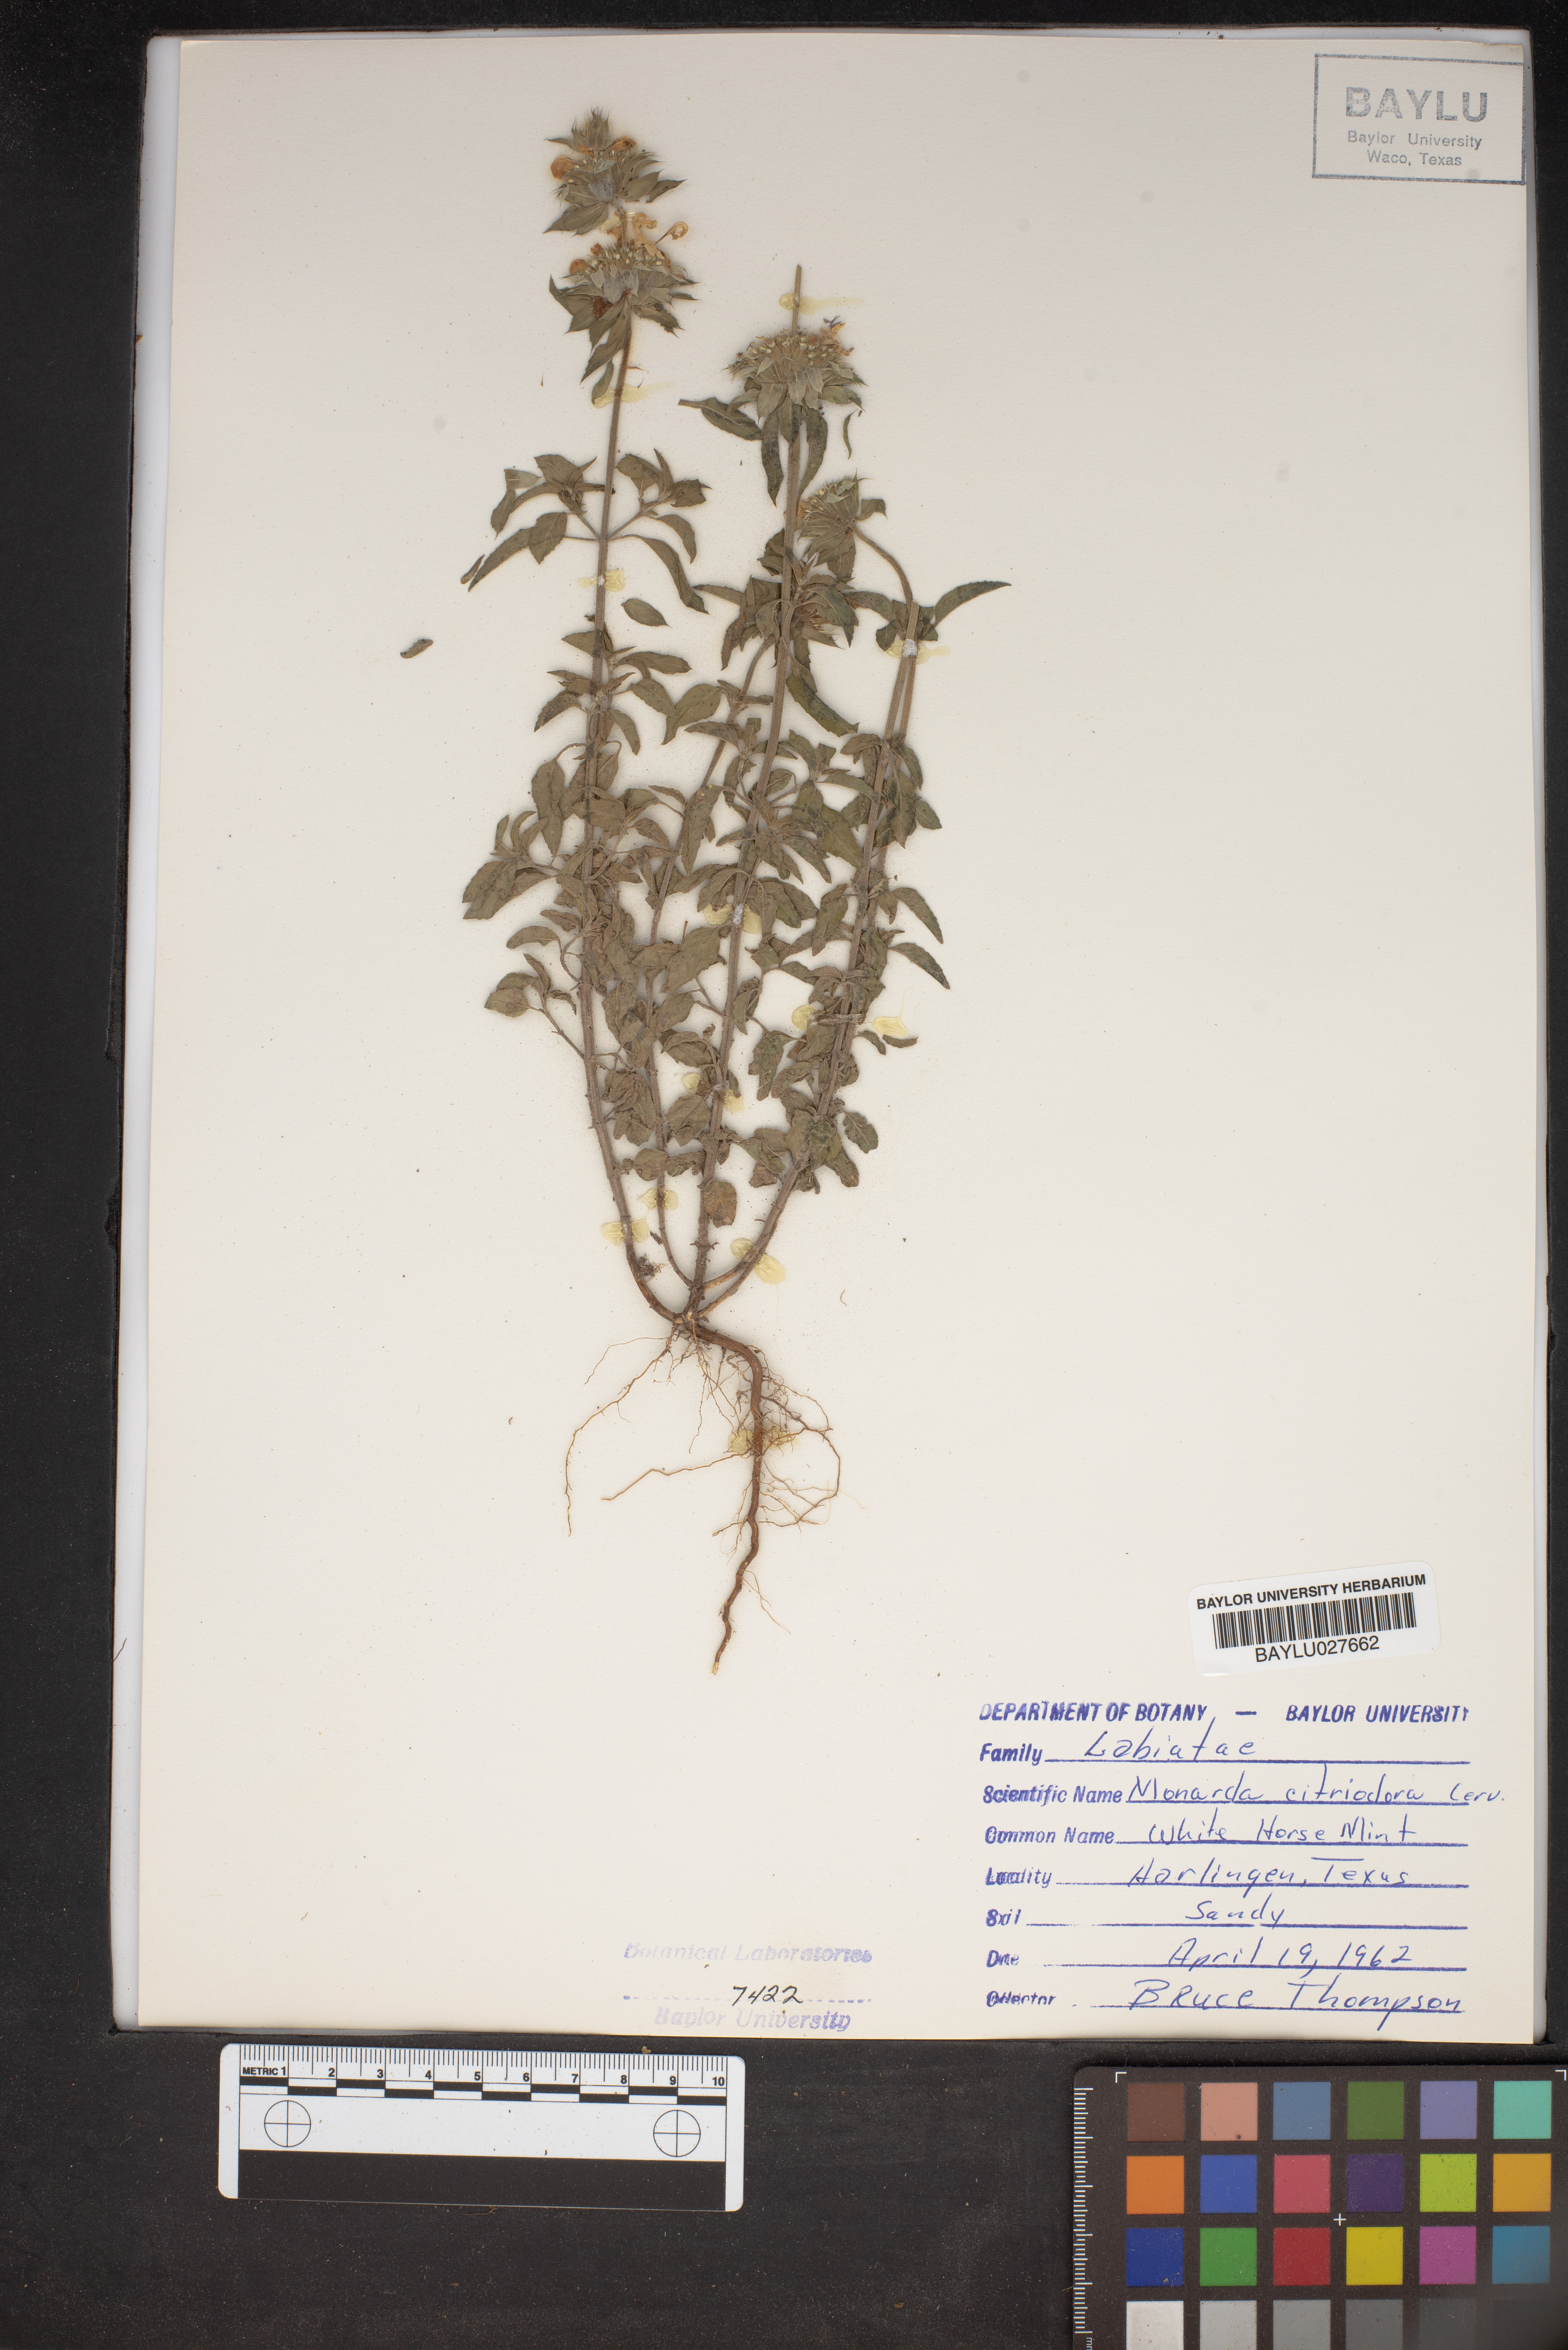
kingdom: Plantae
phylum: Tracheophyta
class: Magnoliopsida
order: Lamiales
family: Lamiaceae
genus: Monarda
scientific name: Monarda citriodora
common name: Lemon beebalm
